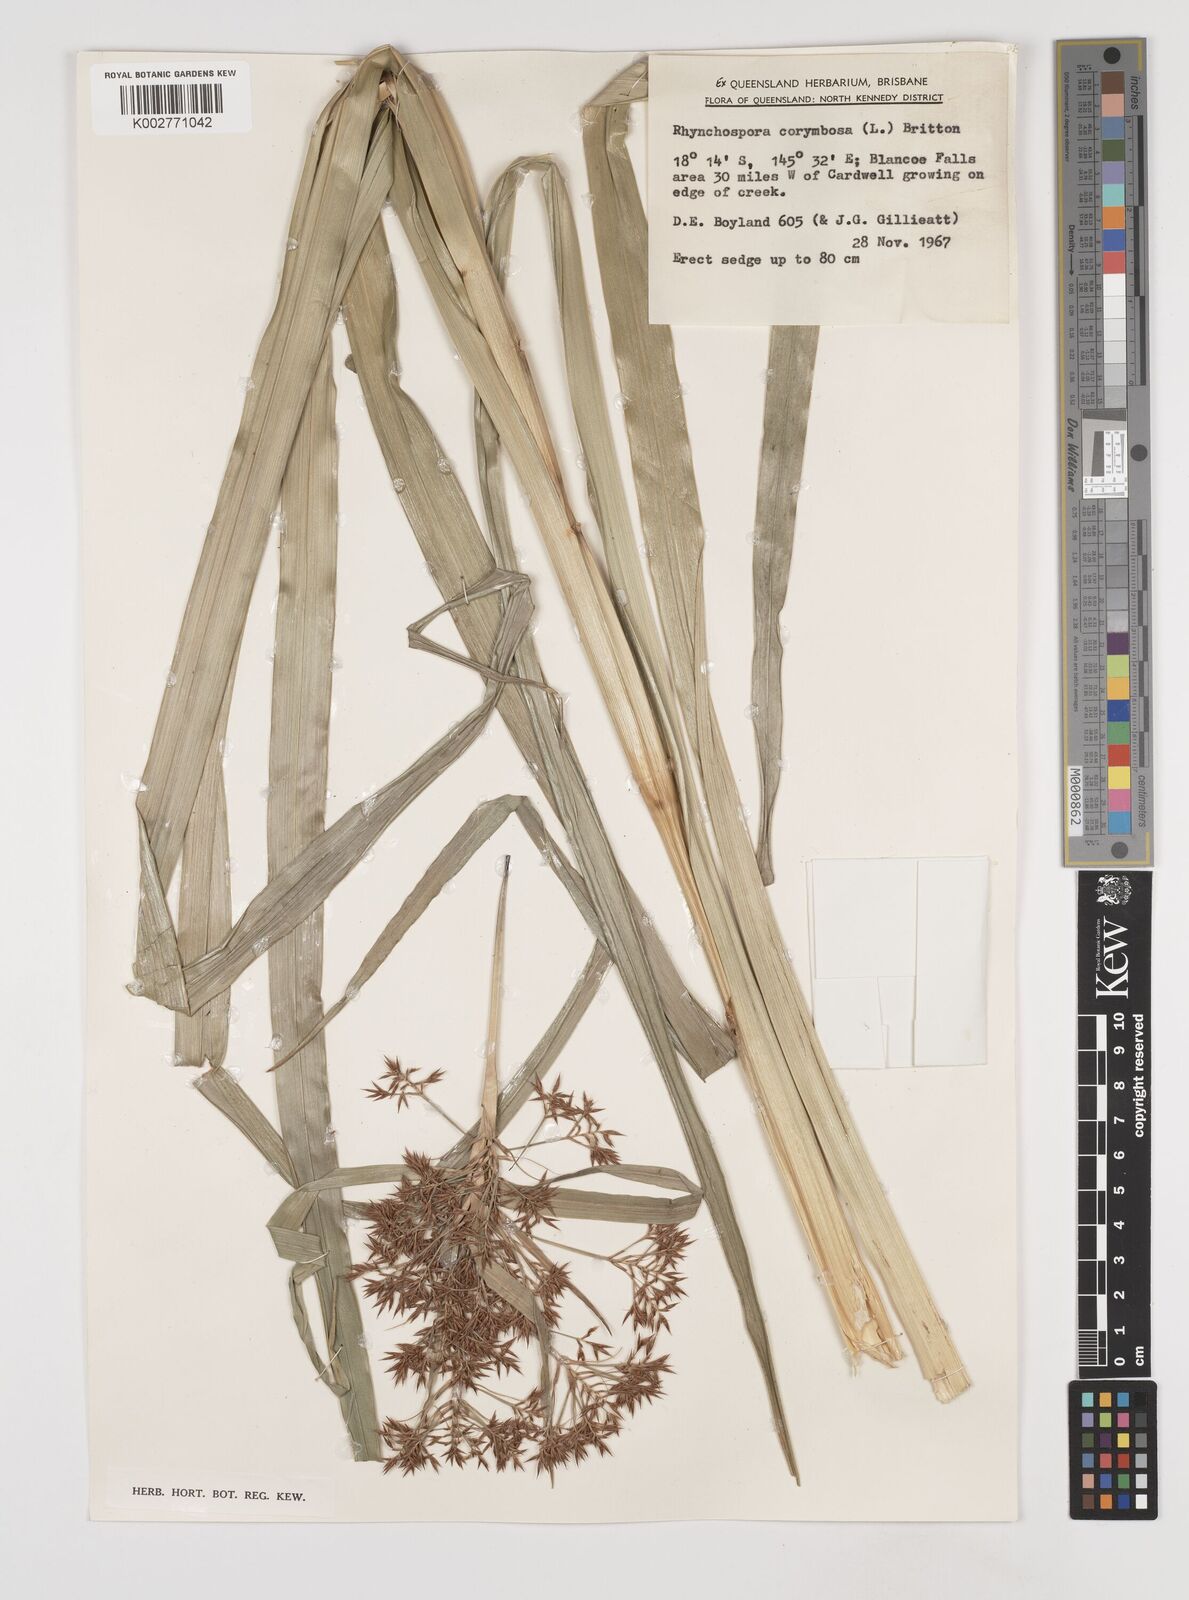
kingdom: Plantae
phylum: Tracheophyta
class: Liliopsida
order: Poales
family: Cyperaceae
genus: Rhynchospora
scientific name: Rhynchospora corymbosa
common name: Golden beak sedge
